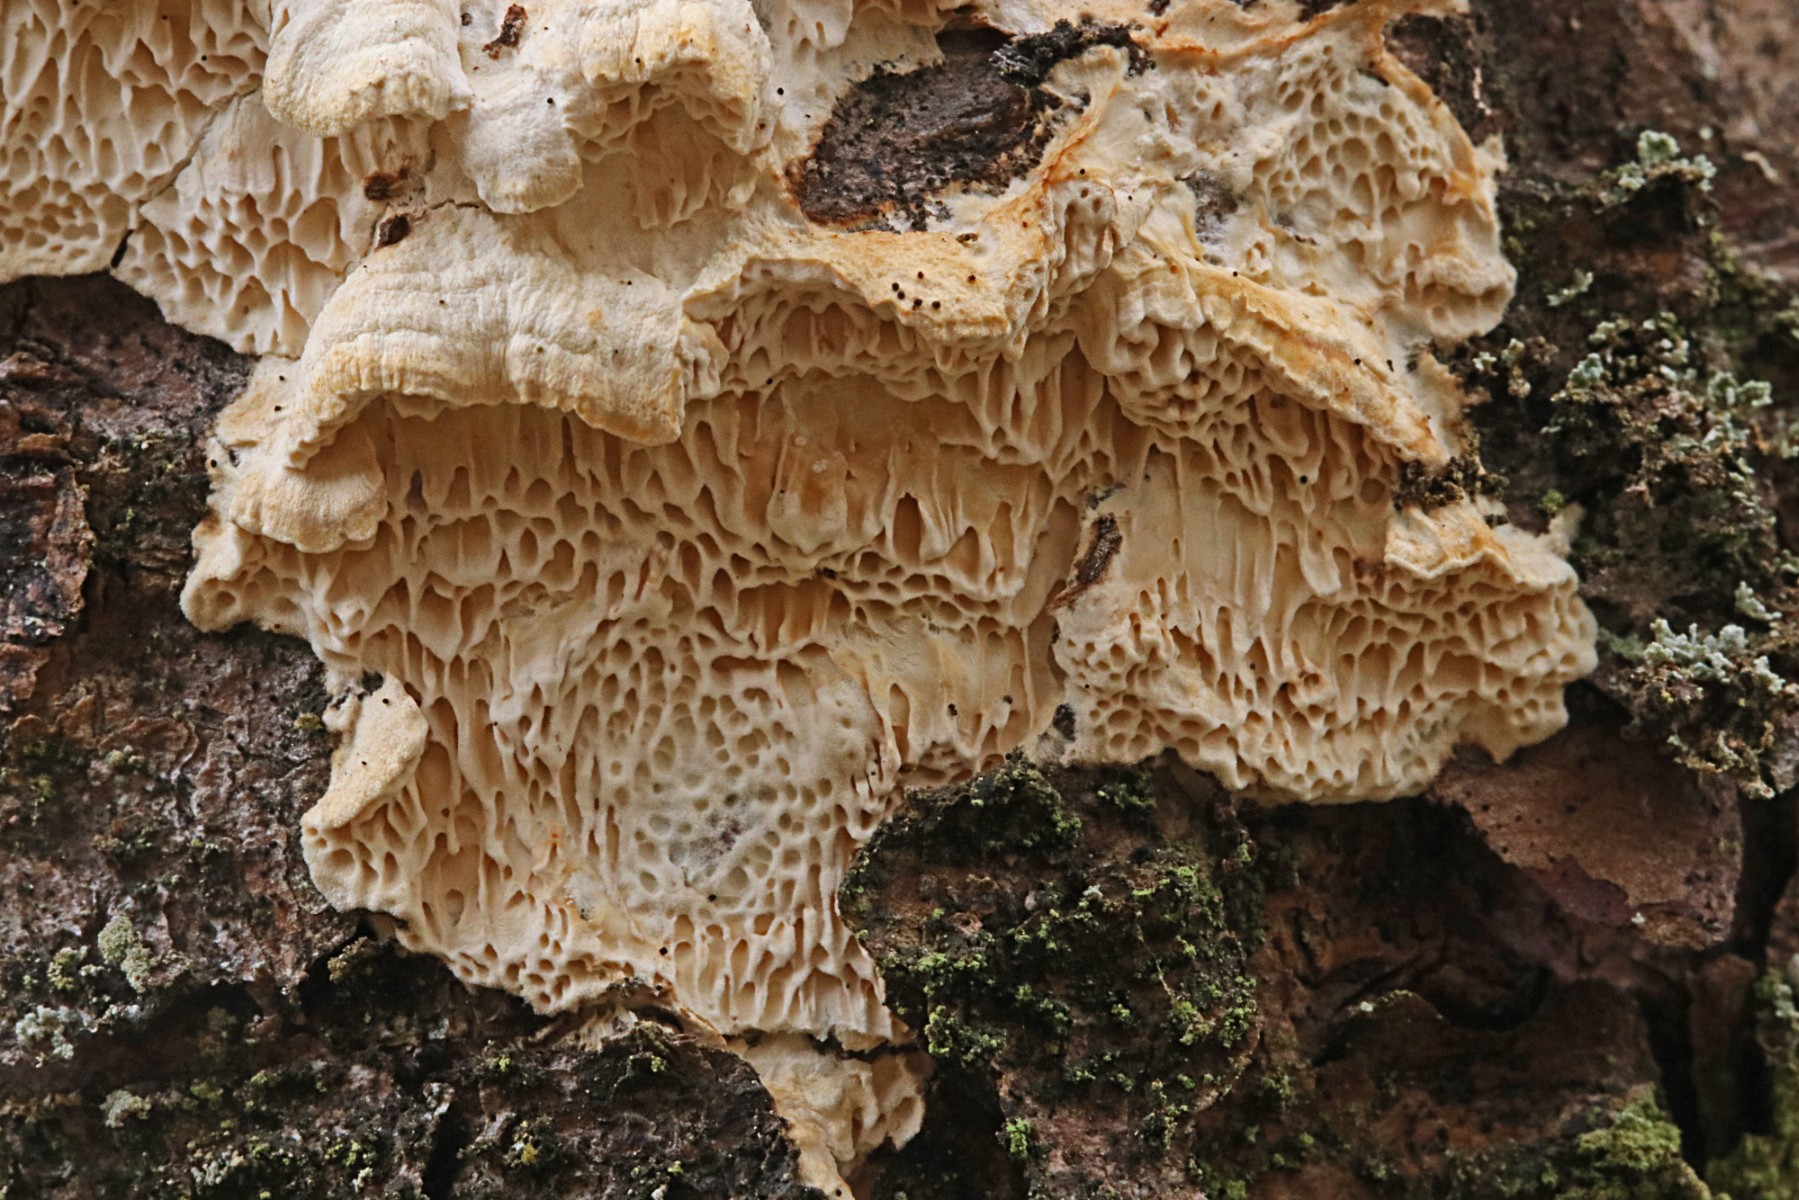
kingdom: Fungi
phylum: Basidiomycota
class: Agaricomycetes
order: Polyporales
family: Fomitopsidaceae
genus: Fomitopsis
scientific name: Fomitopsis
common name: fyrre-skiveporesvamp
